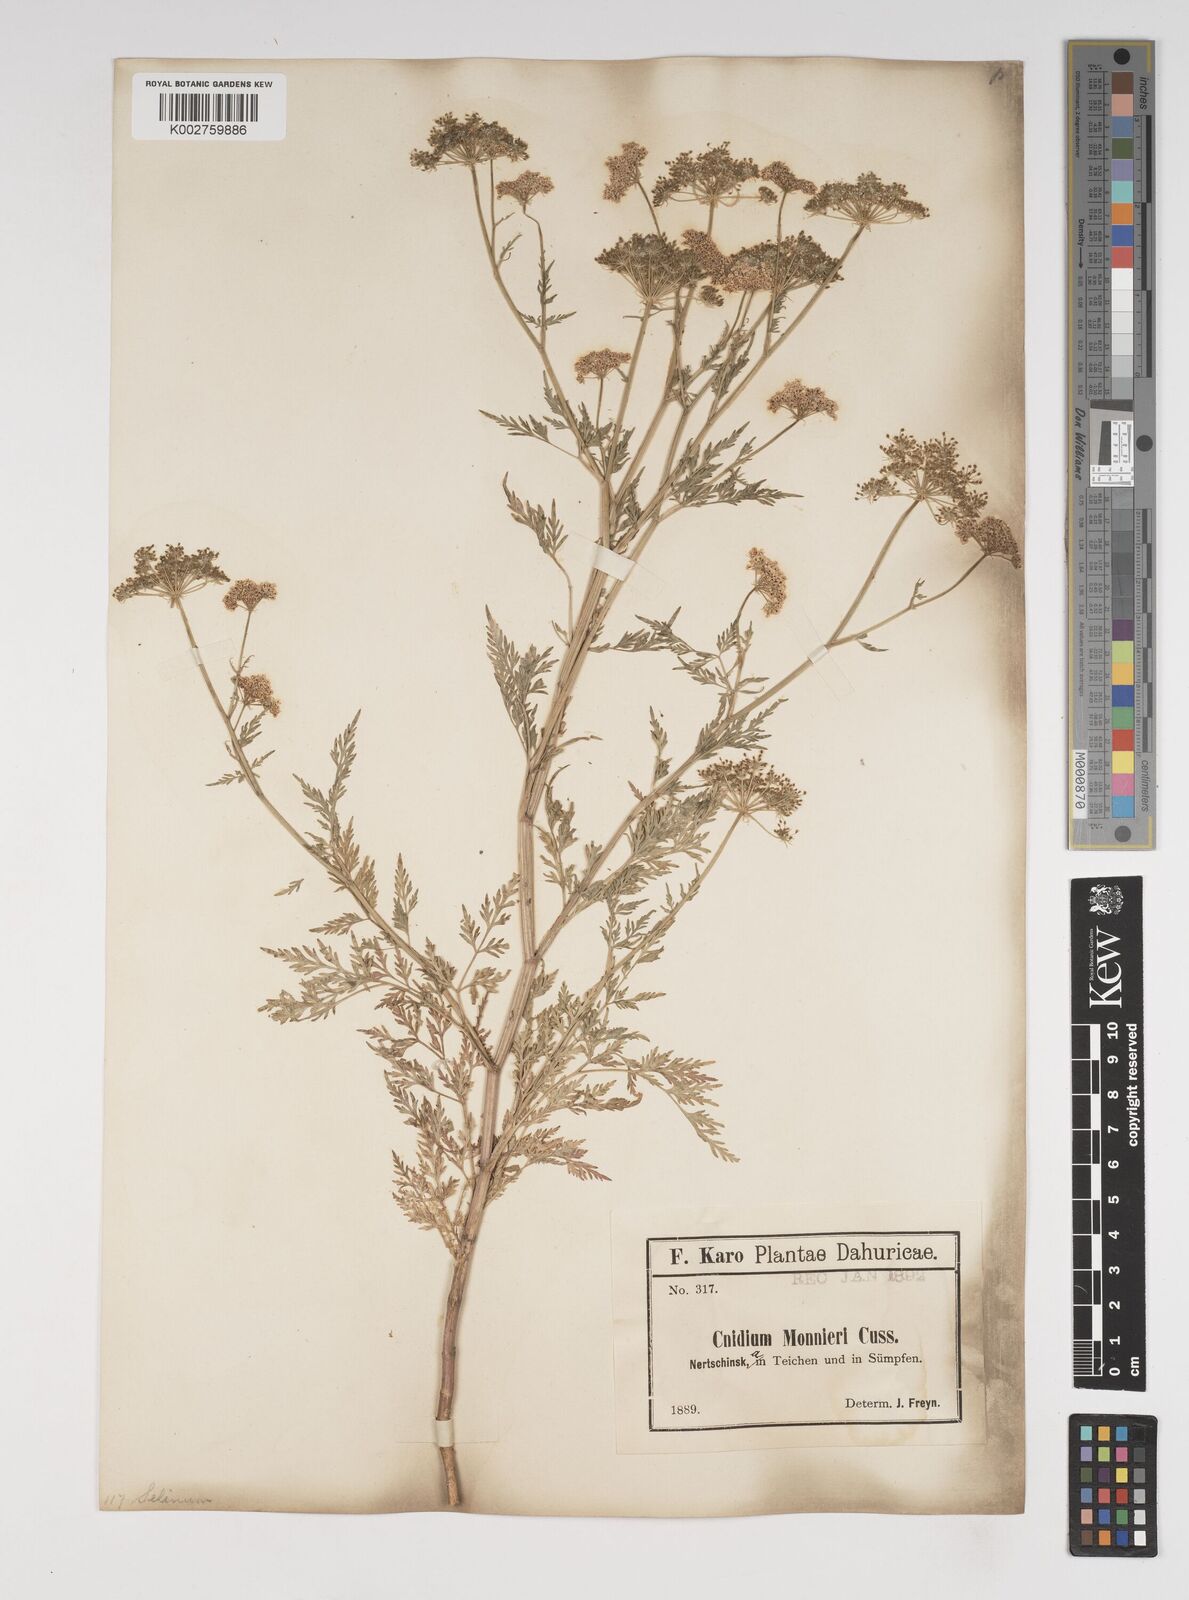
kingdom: Plantae
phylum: Tracheophyta
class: Magnoliopsida
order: Apiales
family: Apiaceae
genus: Cnidium
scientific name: Cnidium monnieri
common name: Monnier's snowparsley
